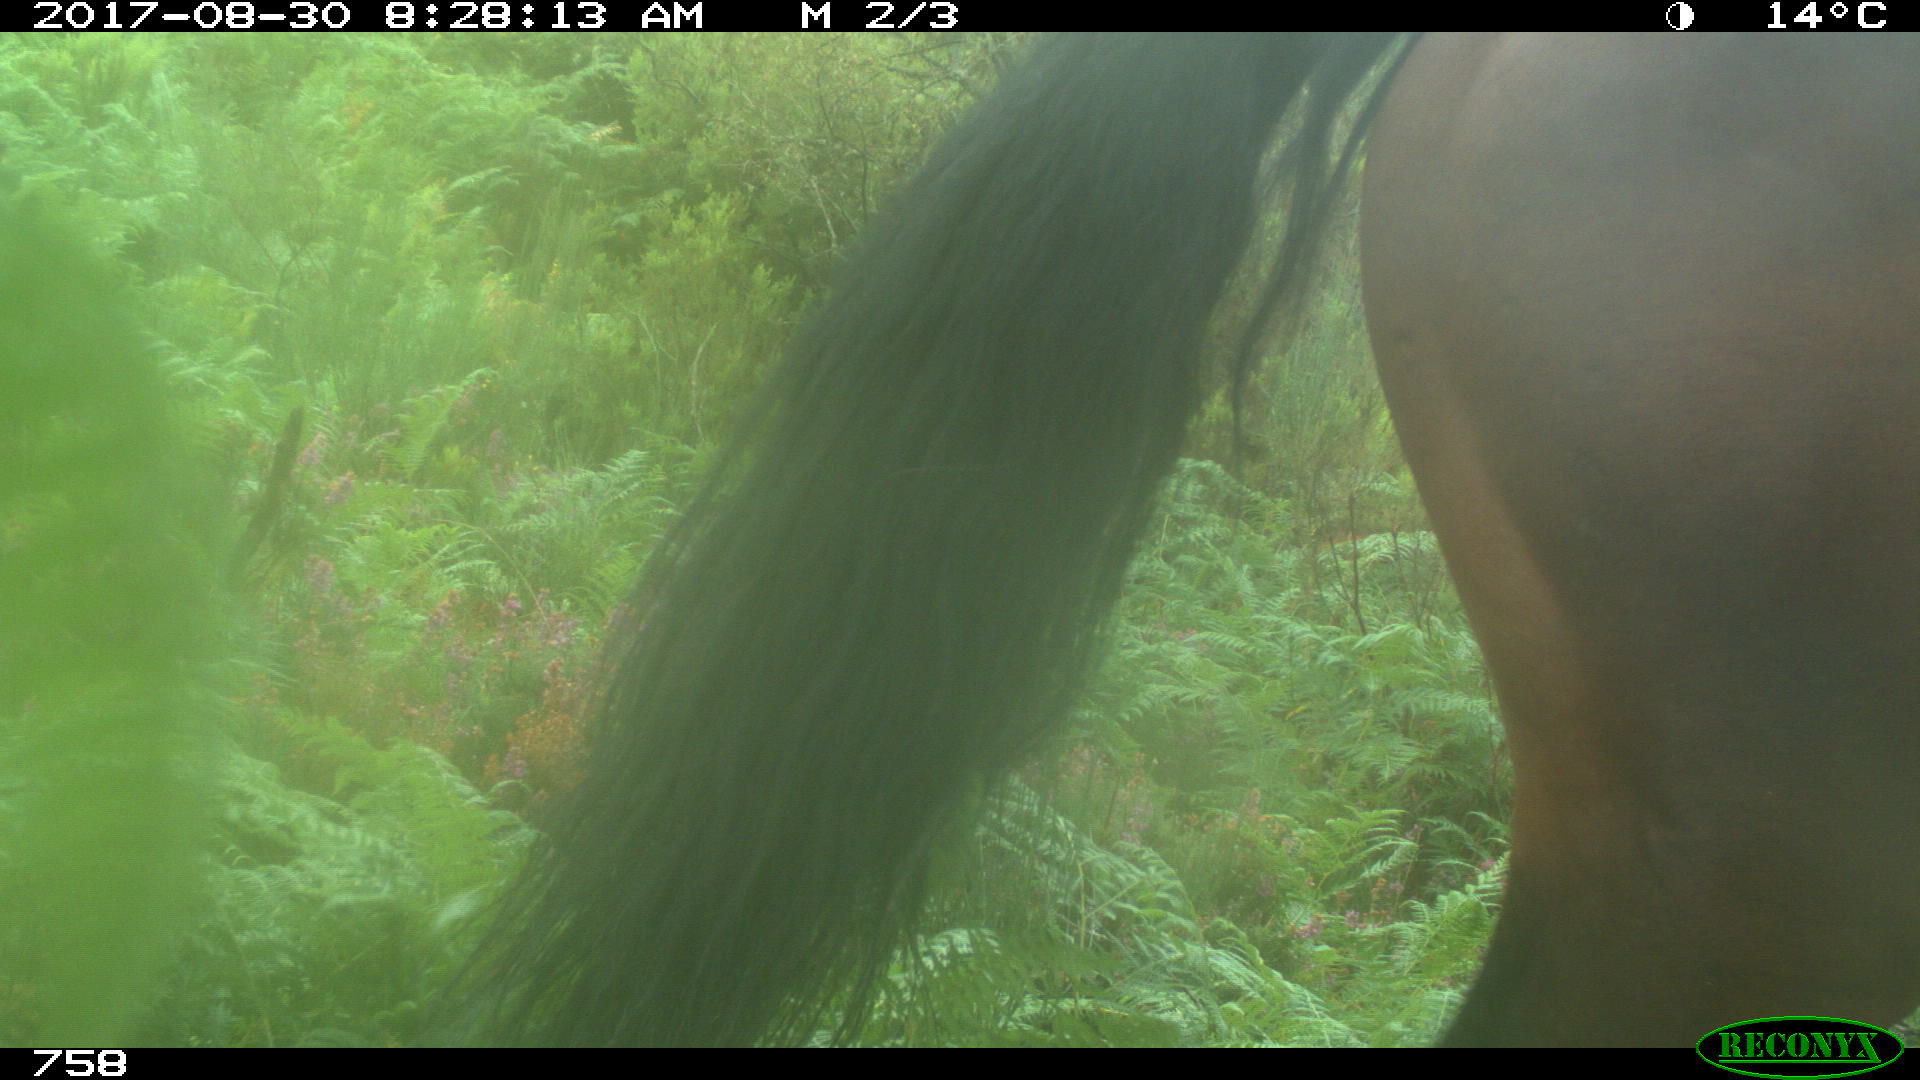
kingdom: Animalia
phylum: Chordata
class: Mammalia
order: Perissodactyla
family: Equidae
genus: Equus
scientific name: Equus caballus
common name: Horse
